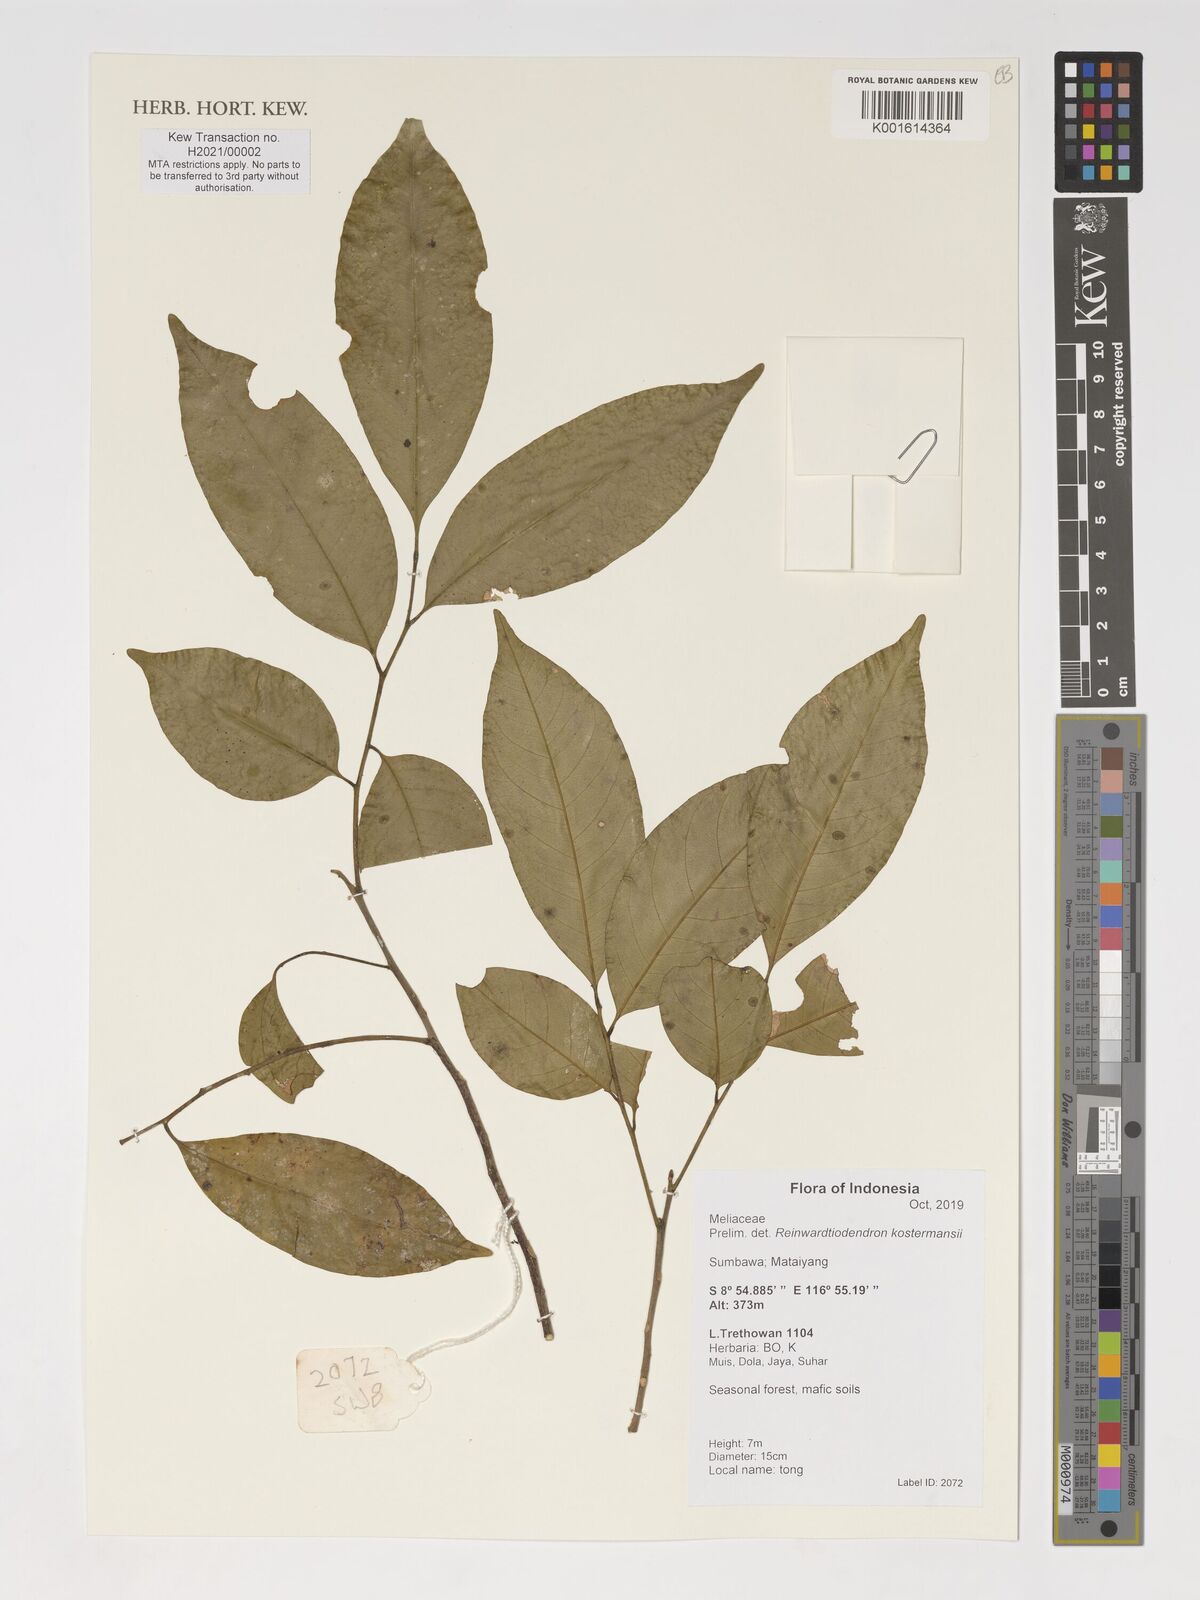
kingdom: Plantae
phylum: Tracheophyta
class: Magnoliopsida
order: Sapindales
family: Meliaceae
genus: Reinwardtiodendron
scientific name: Reinwardtiodendron kostermansii
